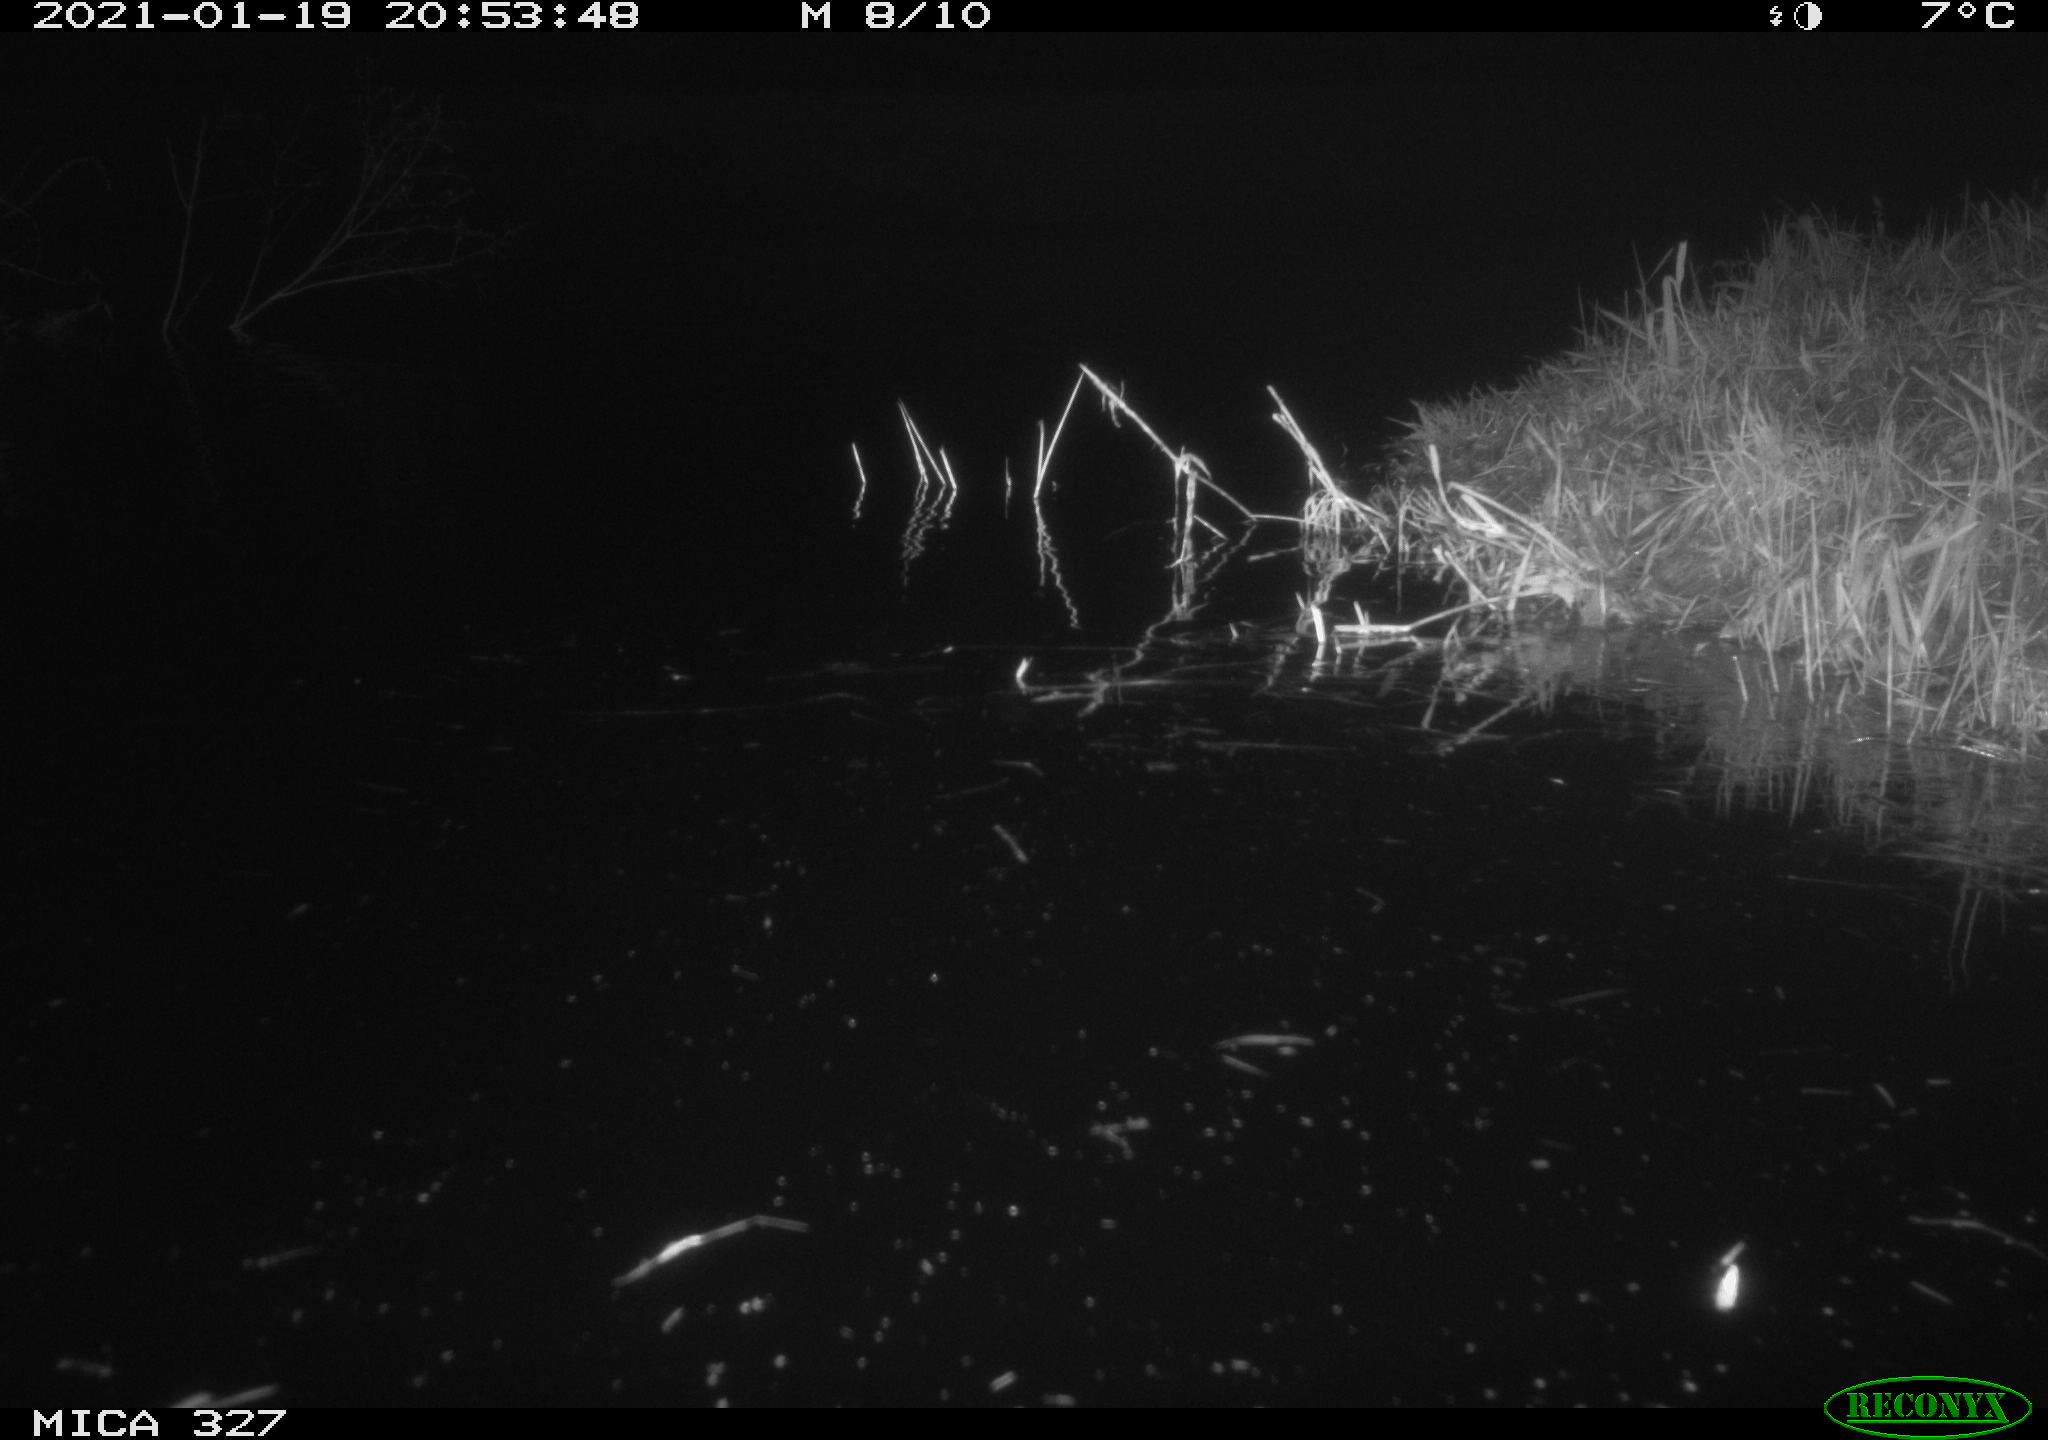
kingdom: Animalia
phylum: Chordata
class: Mammalia
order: Rodentia
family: Cricetidae
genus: Ondatra
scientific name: Ondatra zibethicus
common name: Muskrat
